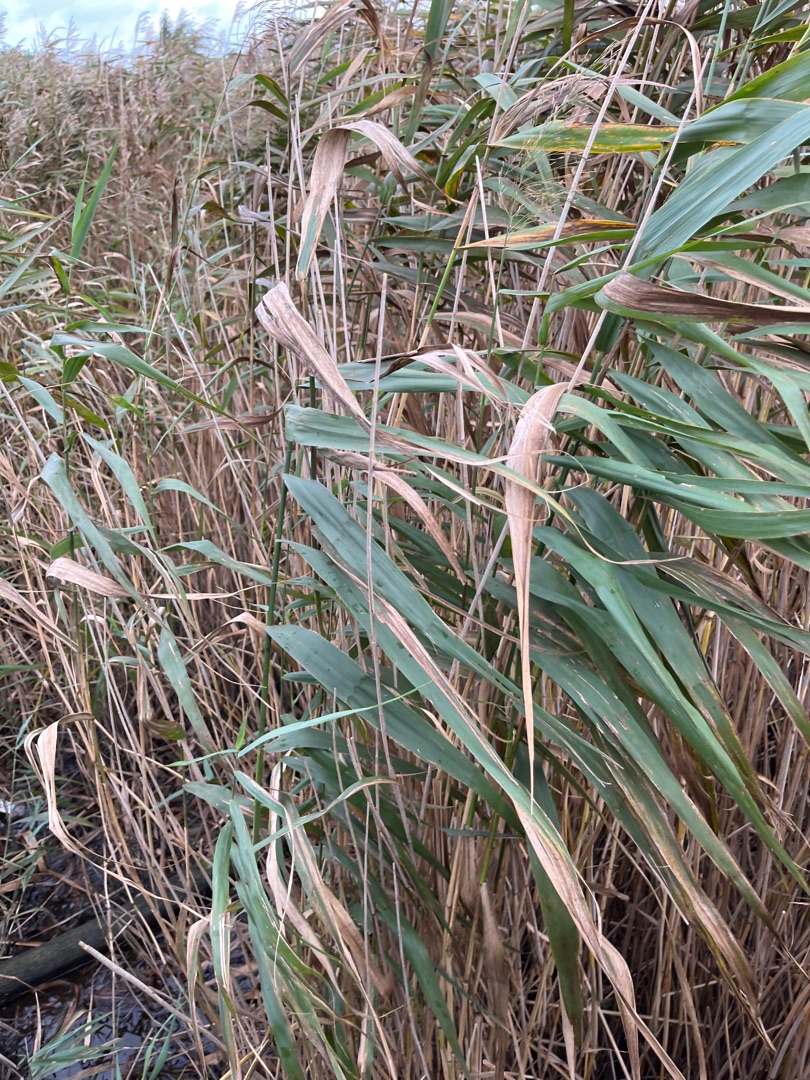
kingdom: Plantae
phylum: Tracheophyta
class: Liliopsida
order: Poales
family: Poaceae
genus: Phragmites
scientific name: Phragmites australis
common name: Tagrør
